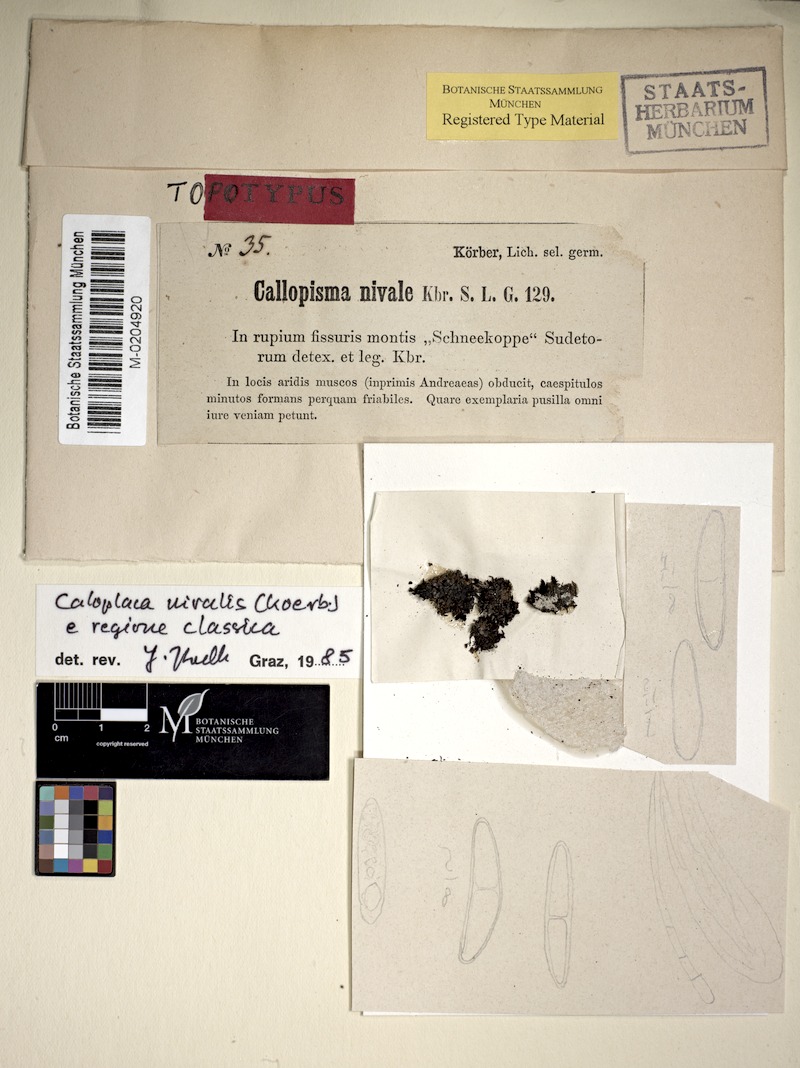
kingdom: Fungi
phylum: Ascomycota
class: Lecanoromycetes
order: Teloschistales
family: Teloschistaceae
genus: Lendemeriella
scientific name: Lendemeriella nivalis
